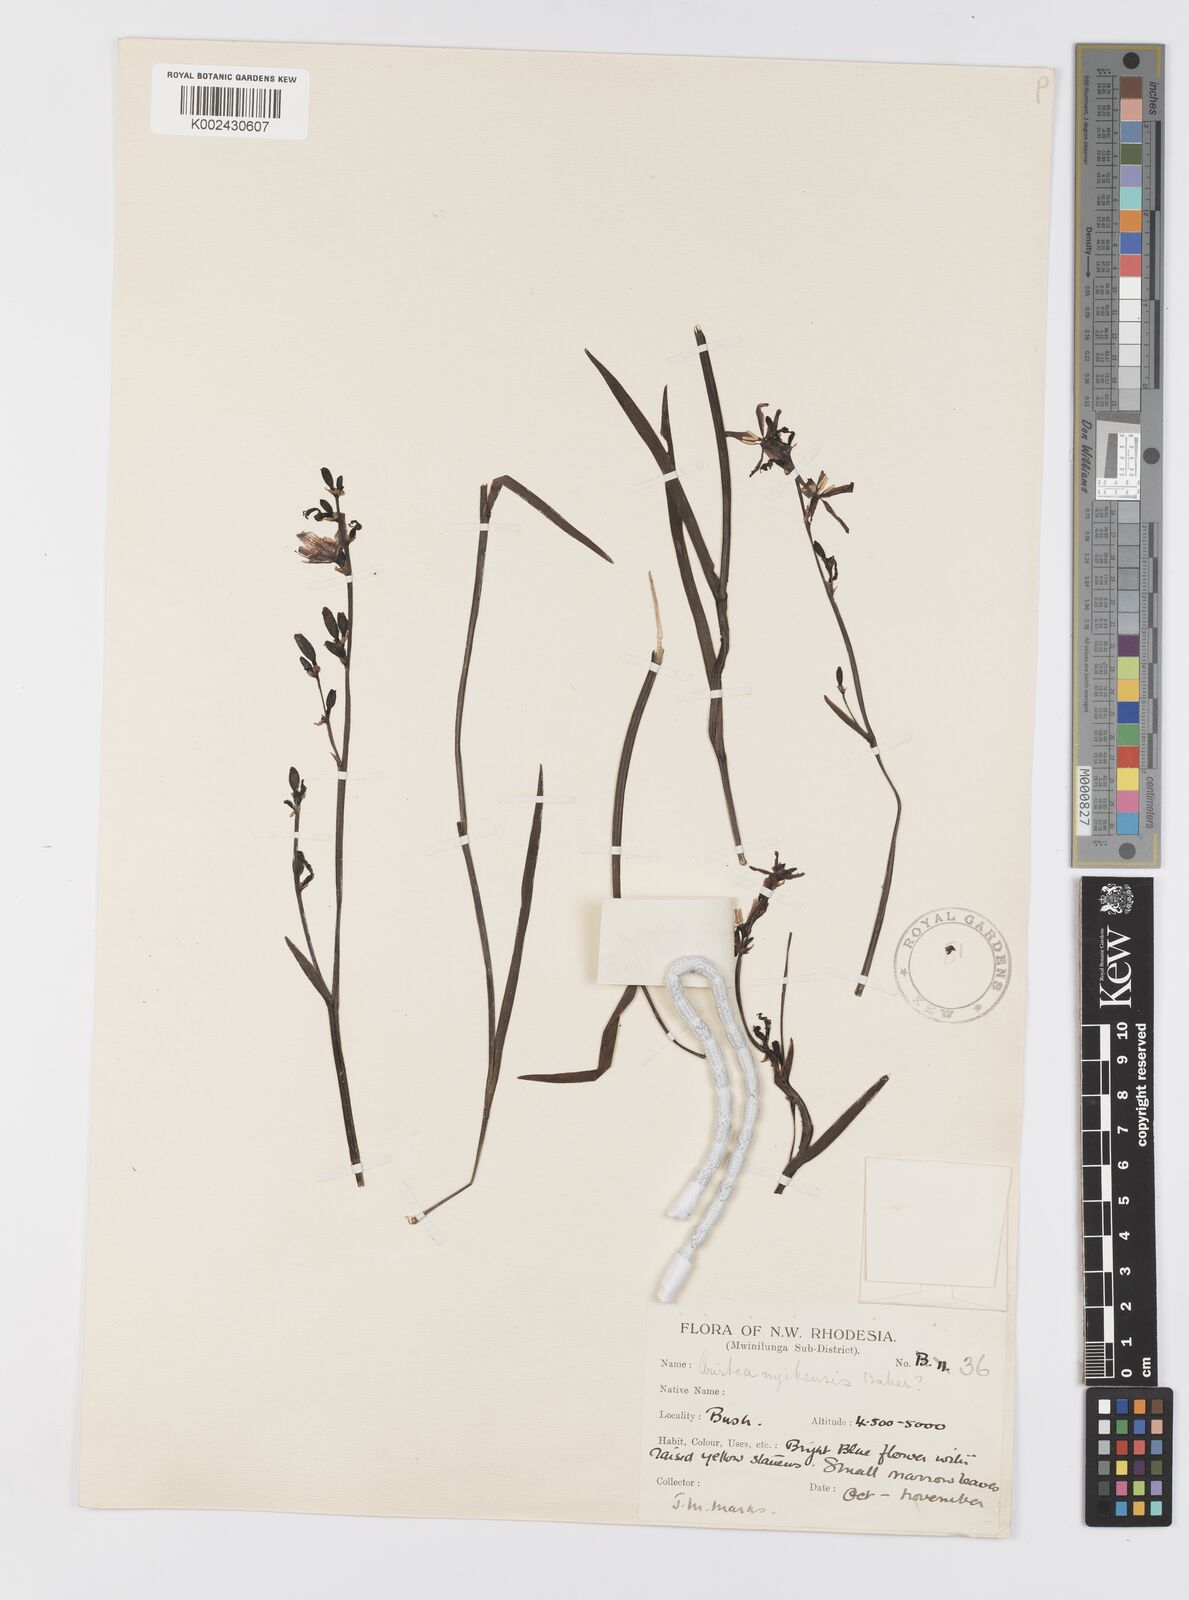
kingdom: Plantae
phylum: Tracheophyta
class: Liliopsida
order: Asparagales
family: Iridaceae
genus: Aristea
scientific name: Aristea nyikensis
